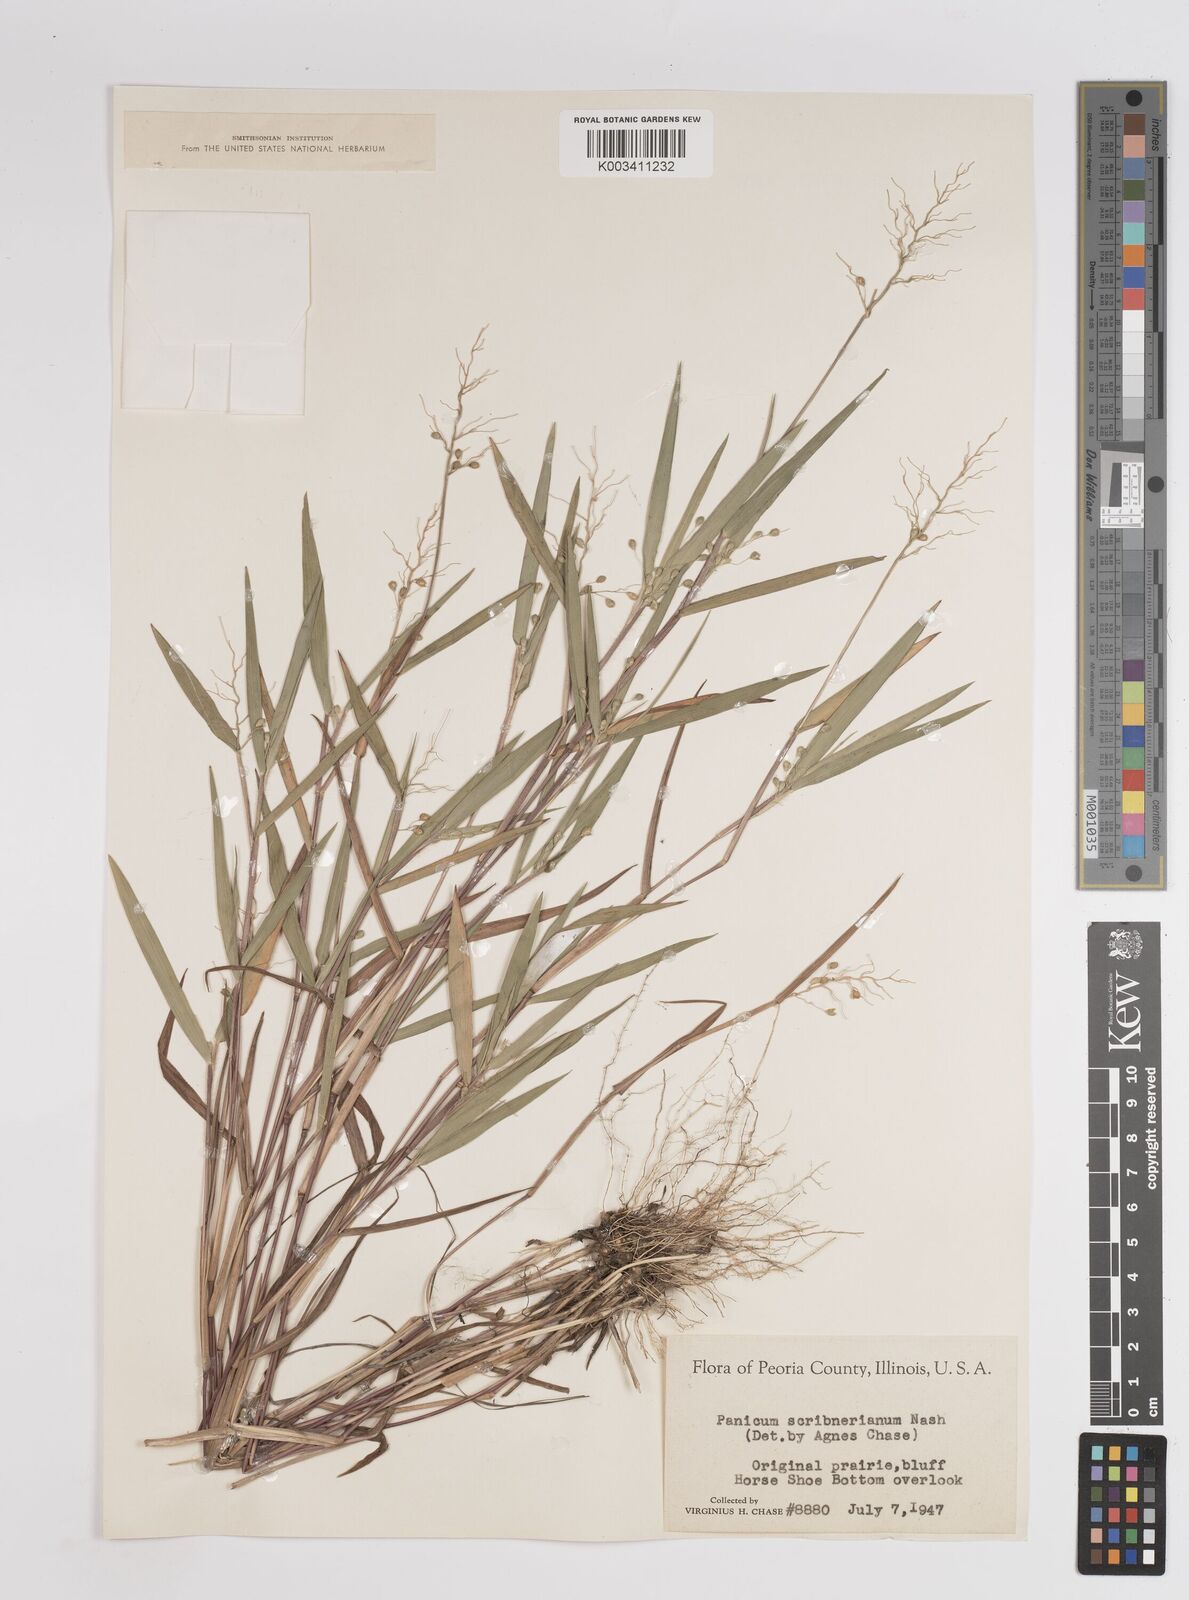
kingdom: Plantae
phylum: Tracheophyta
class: Liliopsida
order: Poales
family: Poaceae
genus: Dichanthelium
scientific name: Dichanthelium scribnerianum
